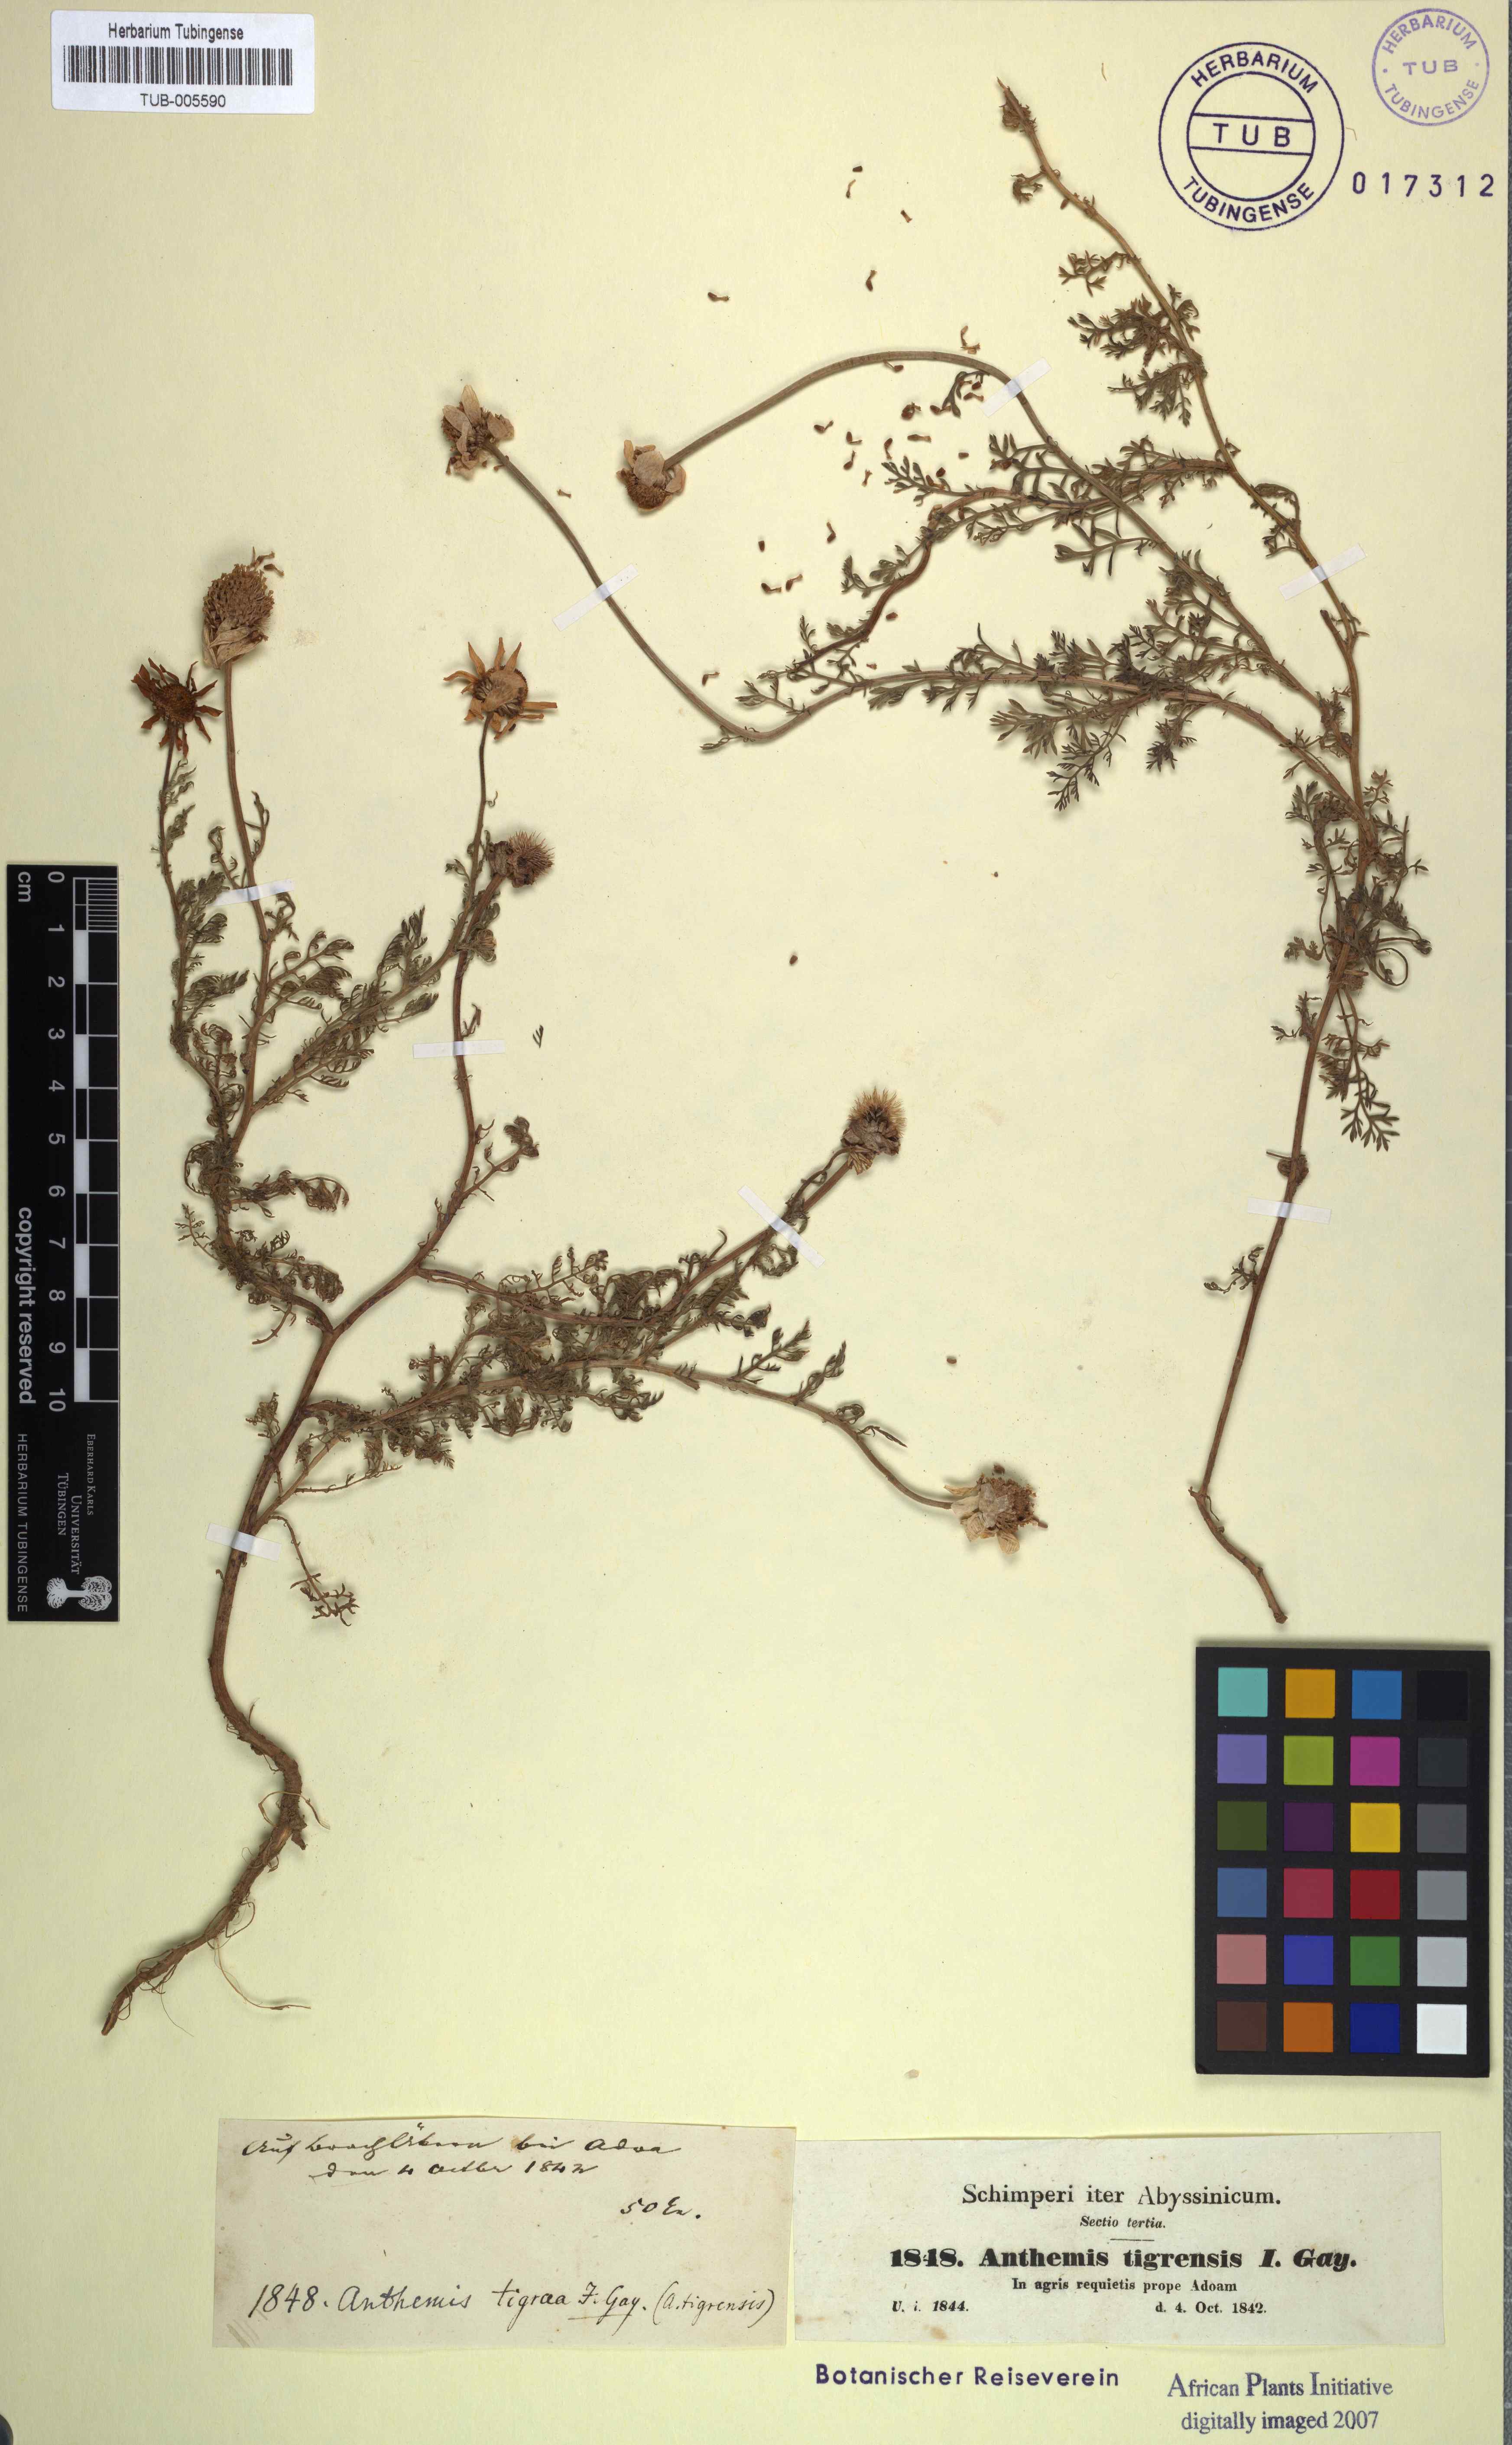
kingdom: Plantae
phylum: Tracheophyta
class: Magnoliopsida
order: Asterales
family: Asteraceae
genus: Anthemis
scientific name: Anthemis tigreensis
